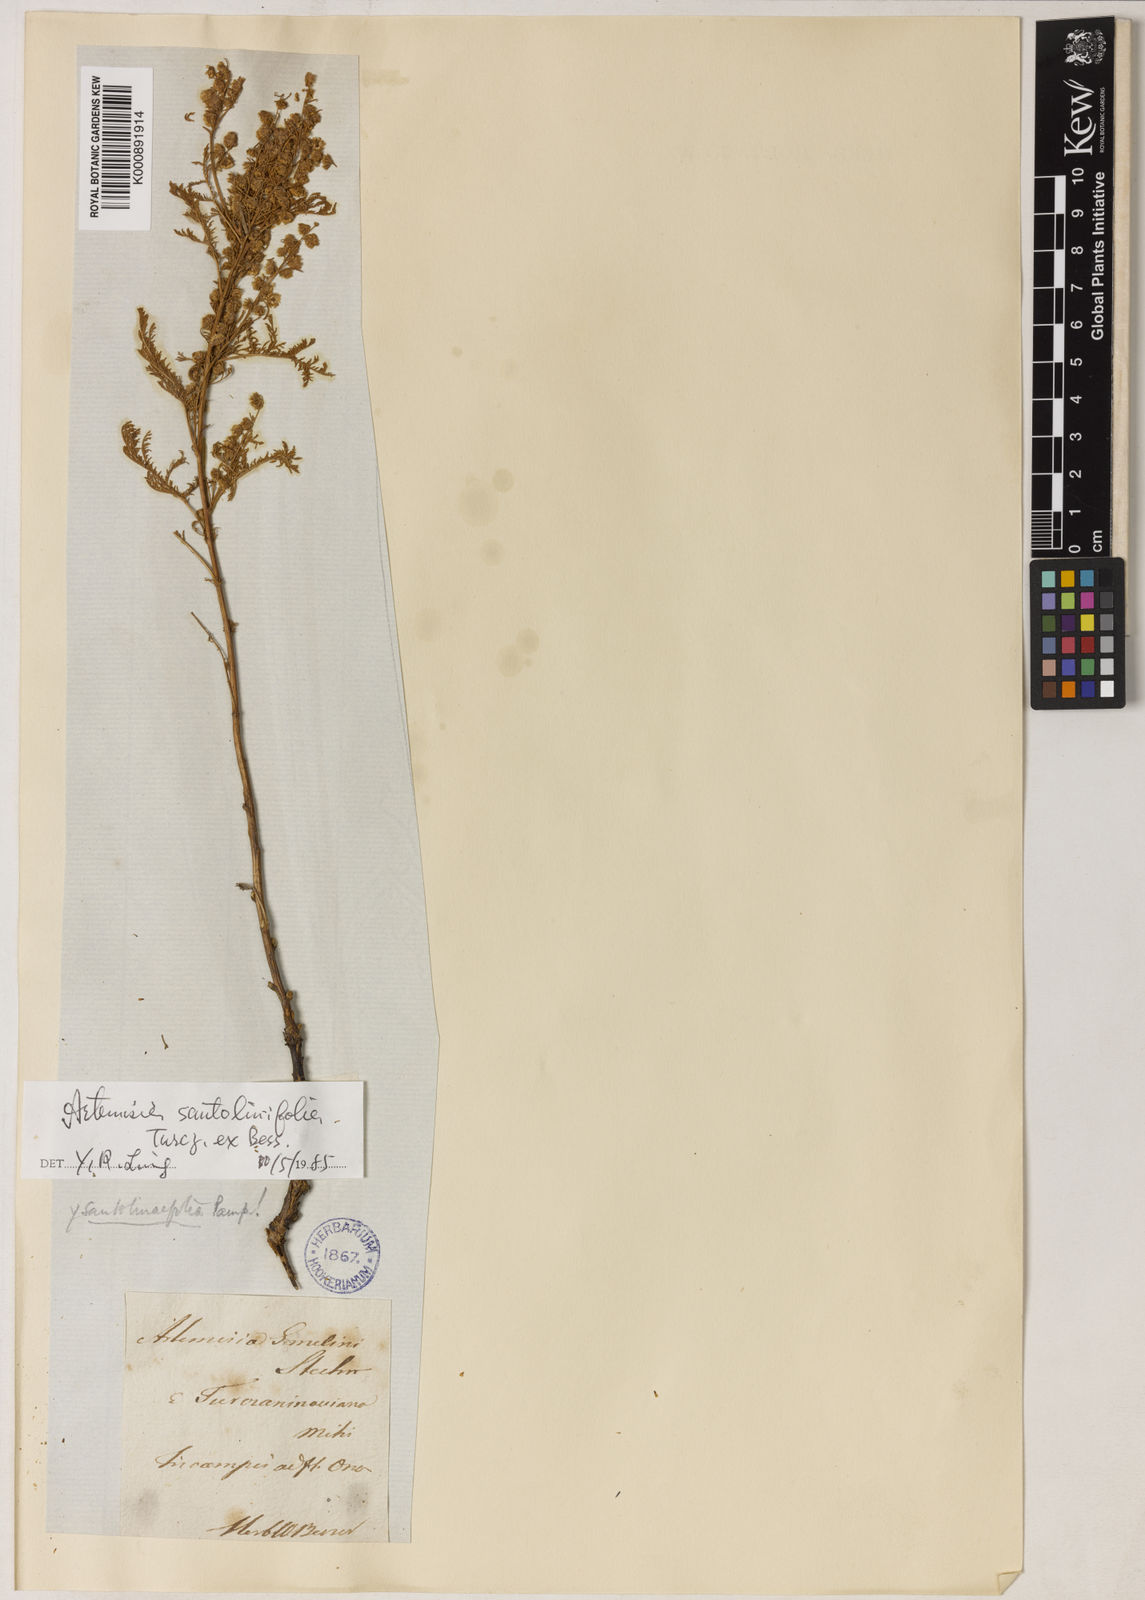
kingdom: Plantae
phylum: Tracheophyta
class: Magnoliopsida
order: Asterales
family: Asteraceae
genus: Artemisia
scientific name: Artemisia lagopus
